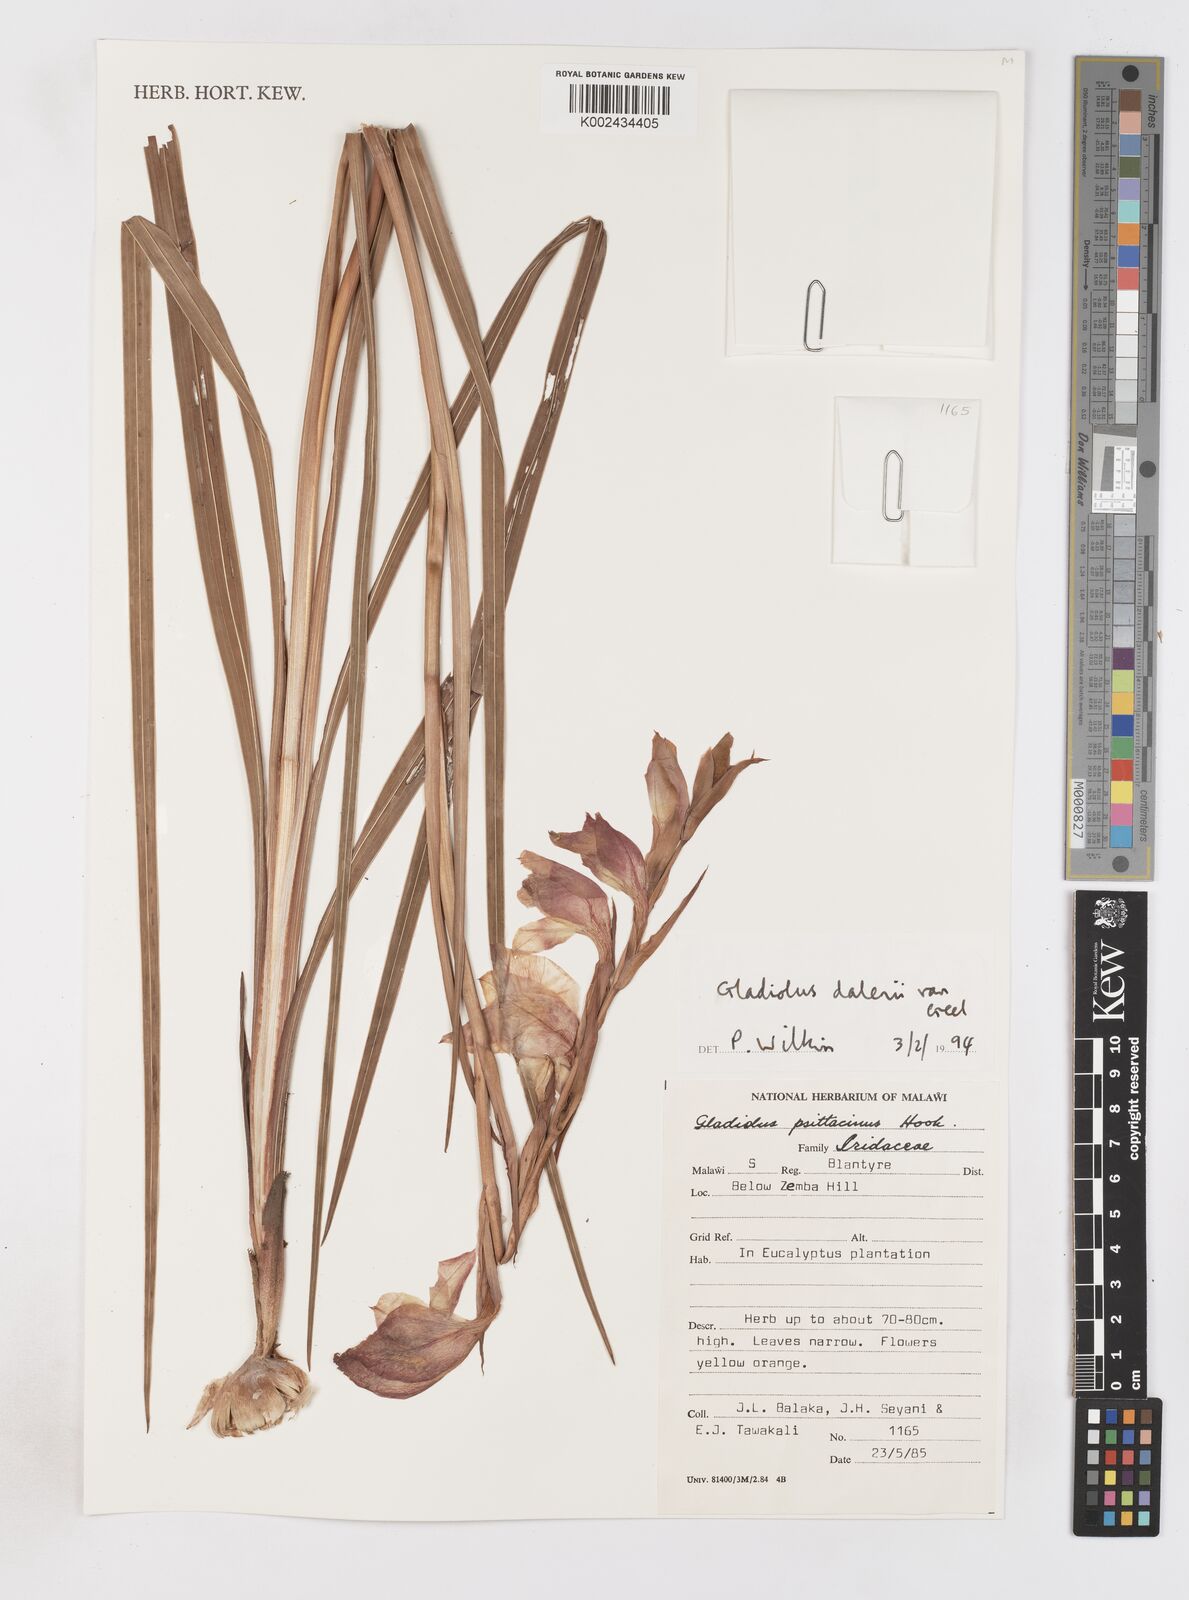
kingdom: Plantae
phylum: Tracheophyta
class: Liliopsida
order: Asparagales
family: Iridaceae
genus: Gladiolus
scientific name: Gladiolus dalenii
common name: Cornflag
